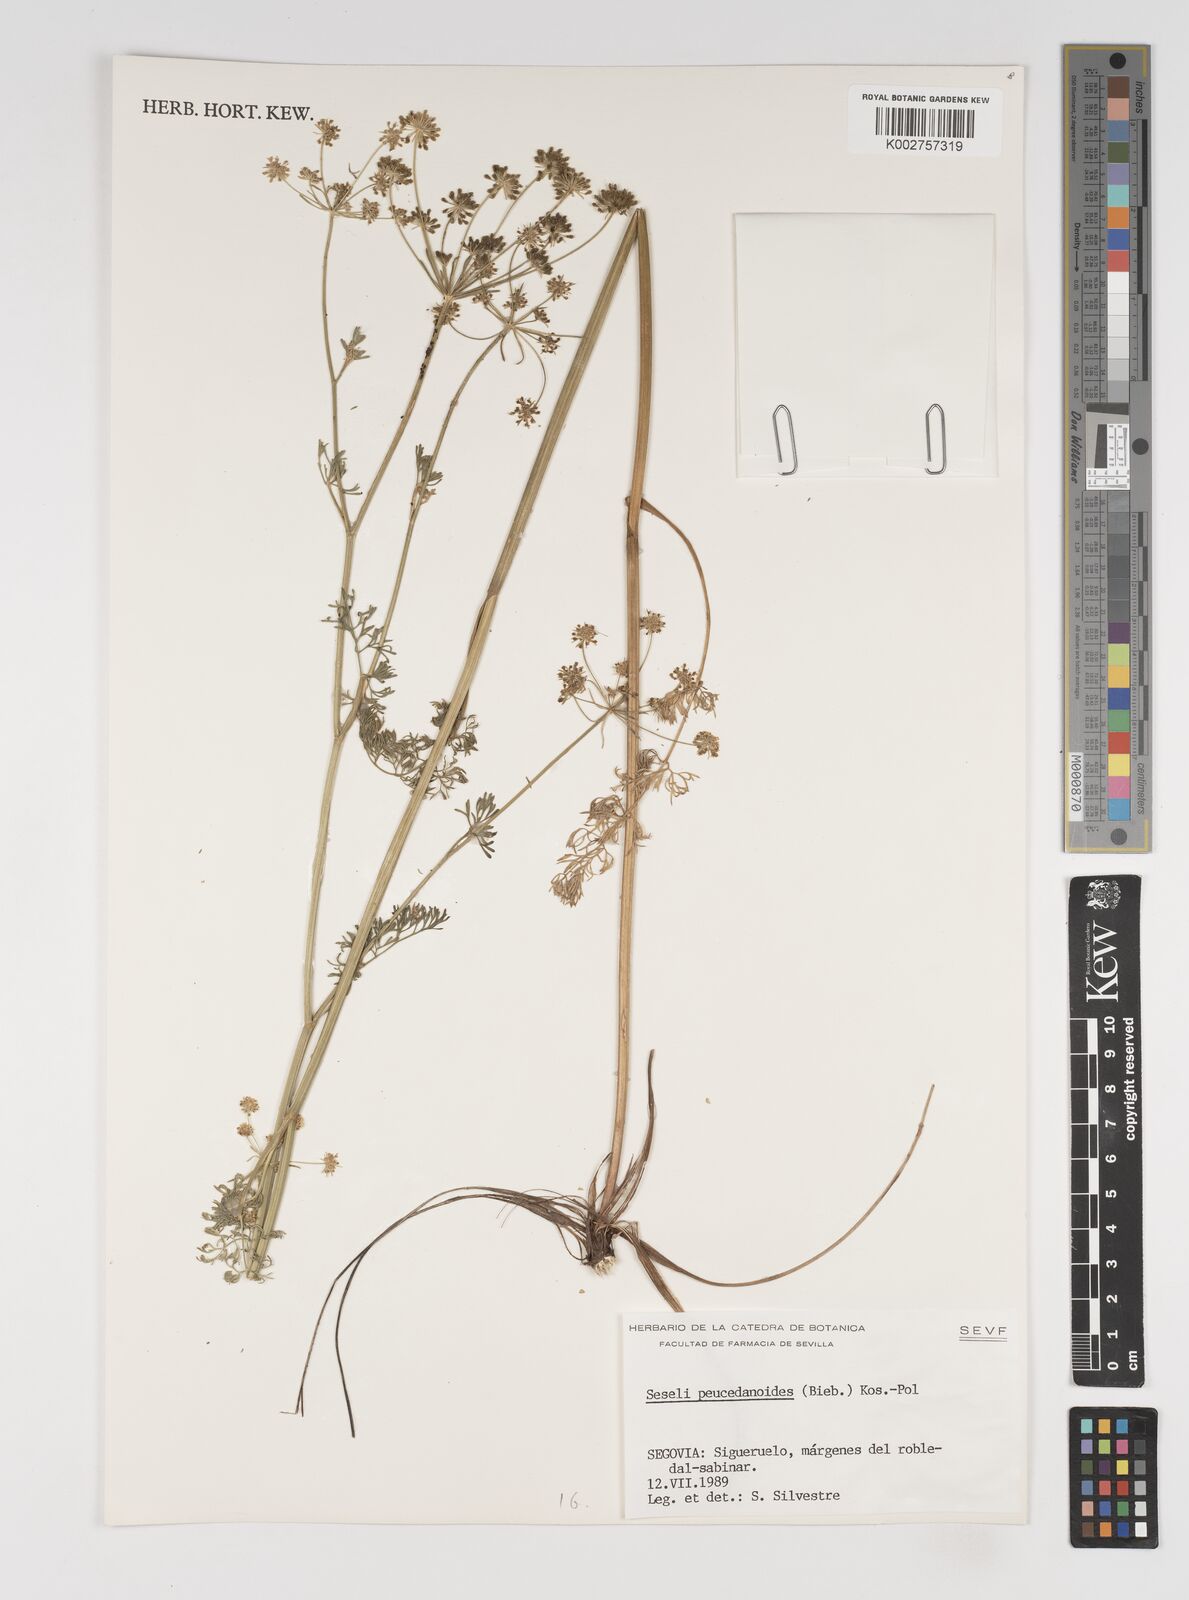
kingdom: Plantae
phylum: Tracheophyta
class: Magnoliopsida
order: Apiales
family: Apiaceae
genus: Gasparinia
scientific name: Gasparinia peucedanoides
